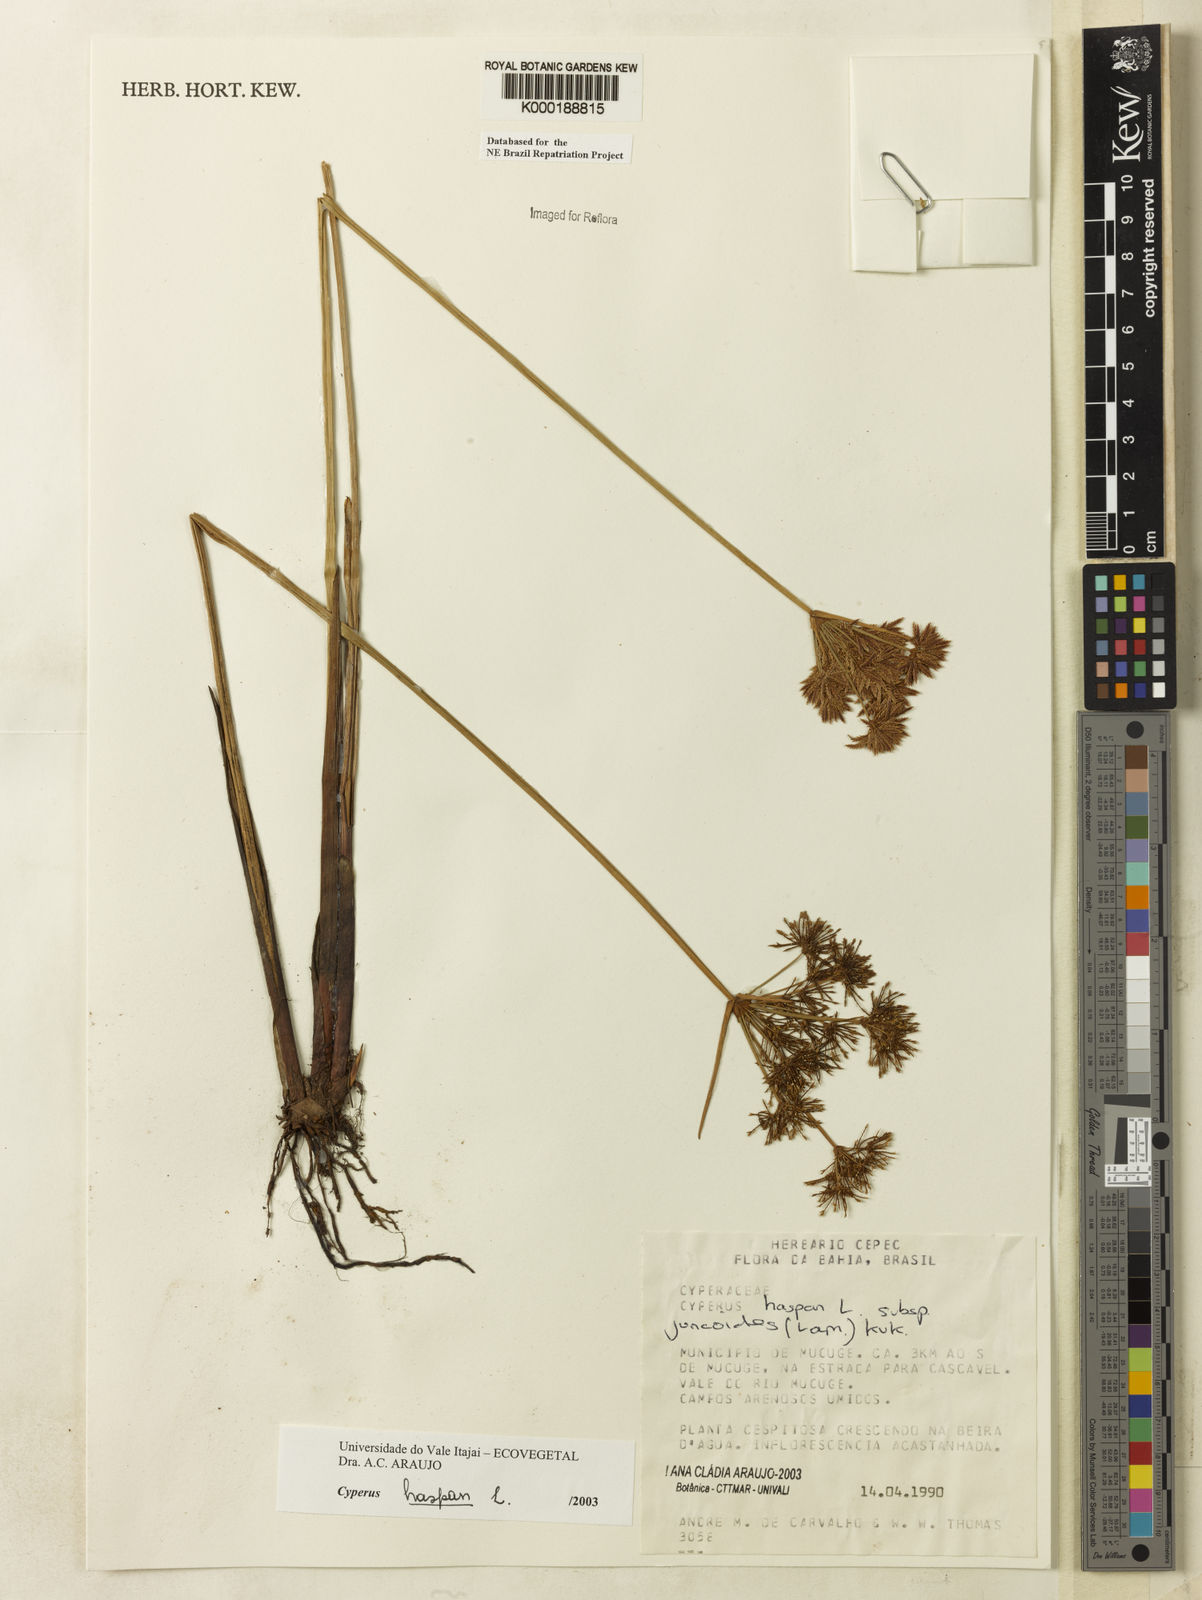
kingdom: Plantae
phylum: Tracheophyta
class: Liliopsida
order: Poales
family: Cyperaceae
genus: Cyperus
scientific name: Cyperus haspan
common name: Haspan flatsedge
